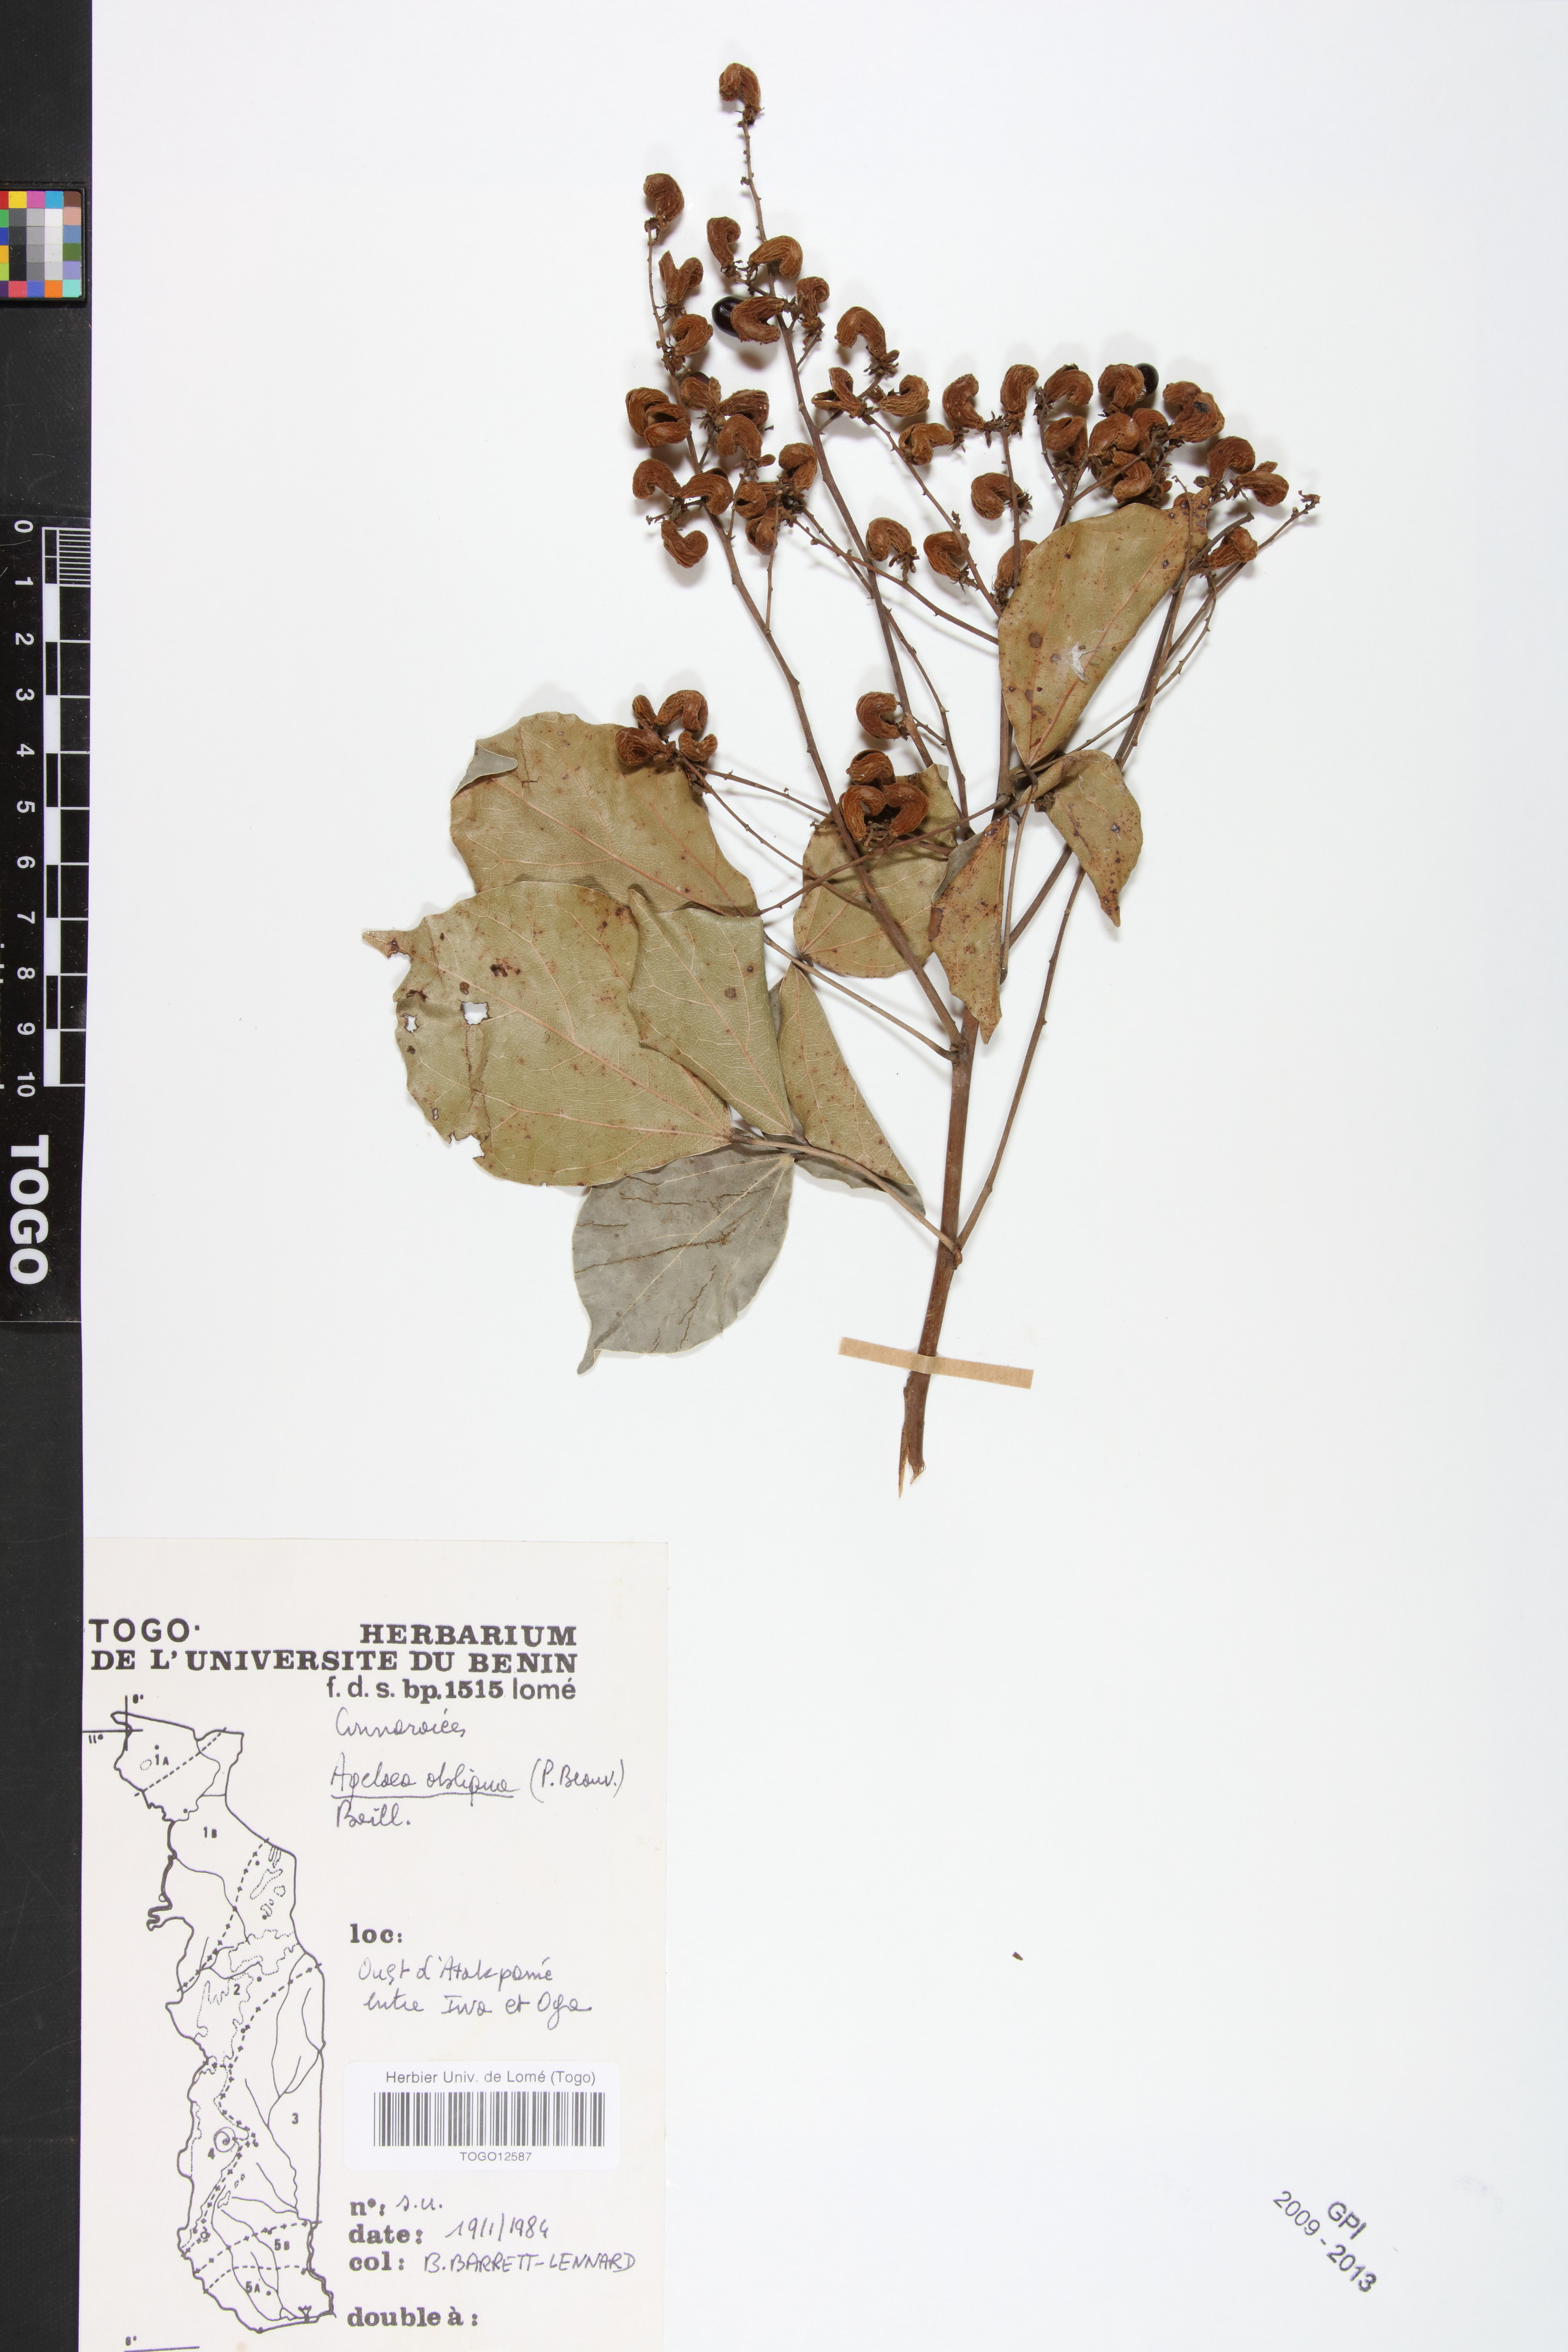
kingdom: Plantae
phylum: Tracheophyta
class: Magnoliopsida
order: Oxalidales
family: Connaraceae
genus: Agelaea
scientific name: Agelaea pentagyna
